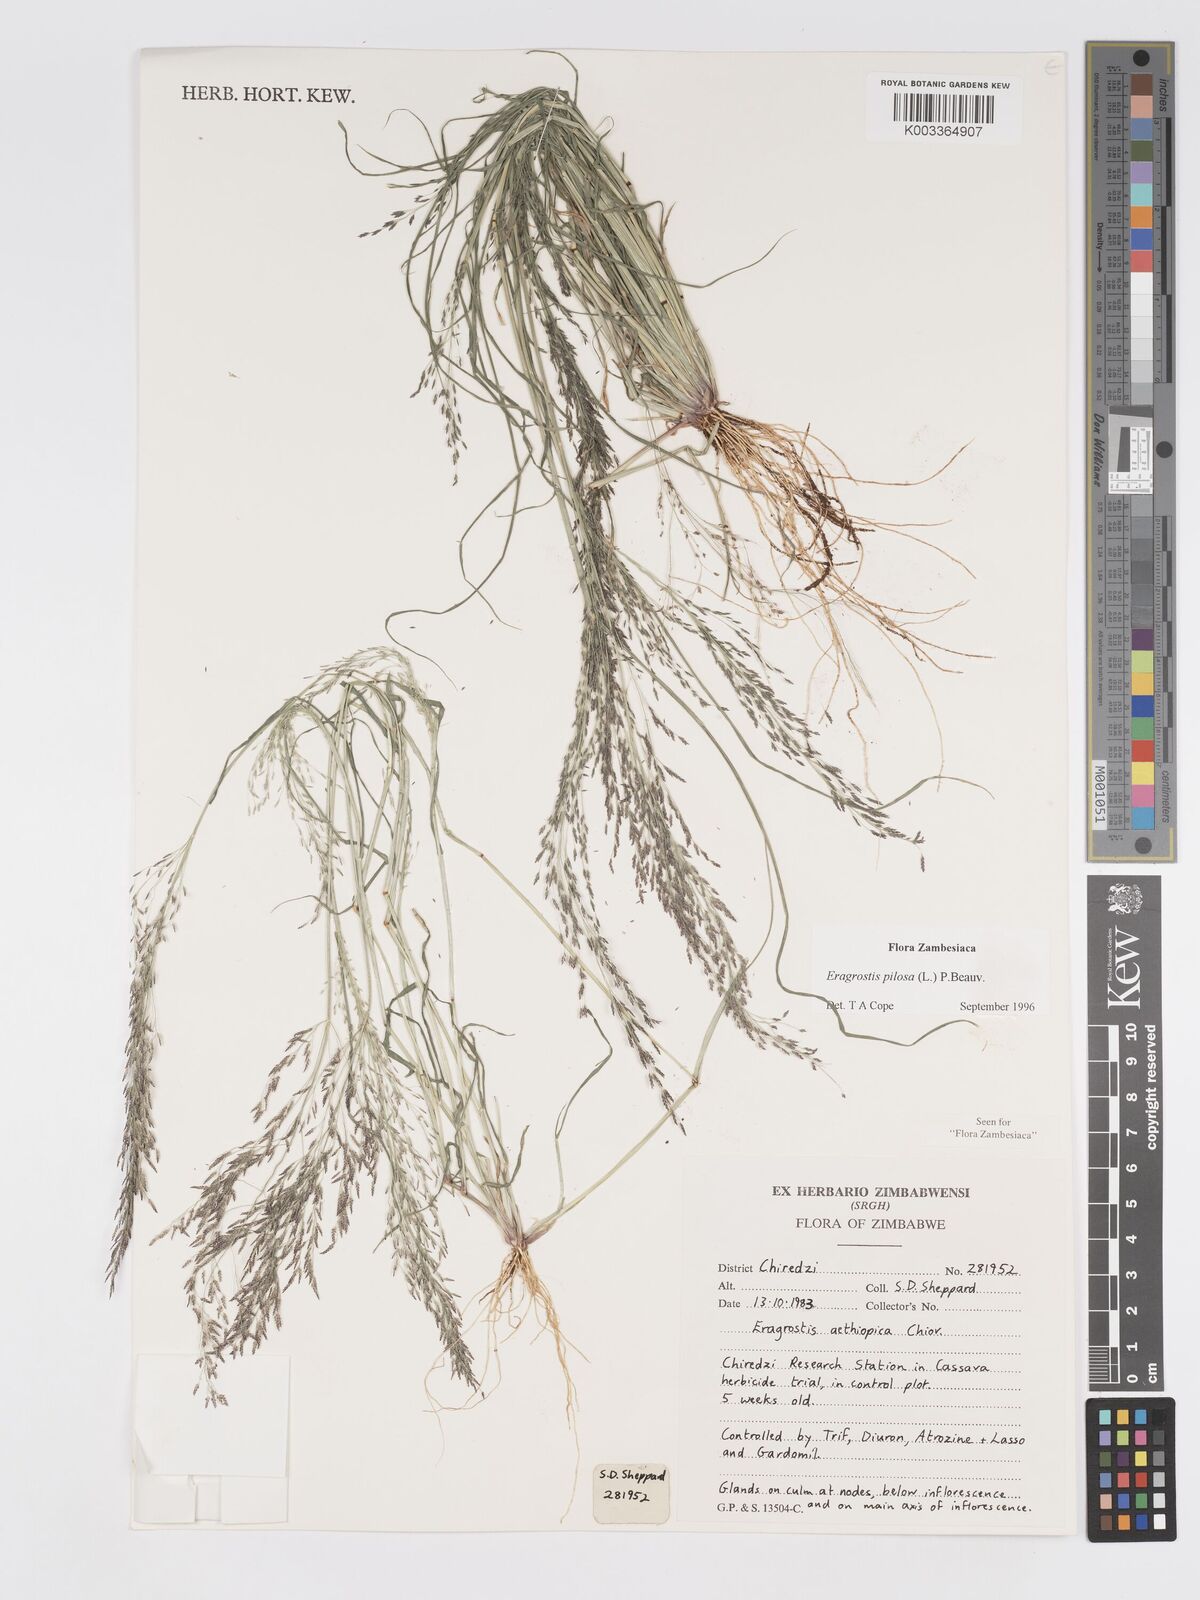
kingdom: Plantae
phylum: Tracheophyta
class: Liliopsida
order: Poales
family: Poaceae
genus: Eragrostis
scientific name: Eragrostis pilosa
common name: Indian lovegrass
